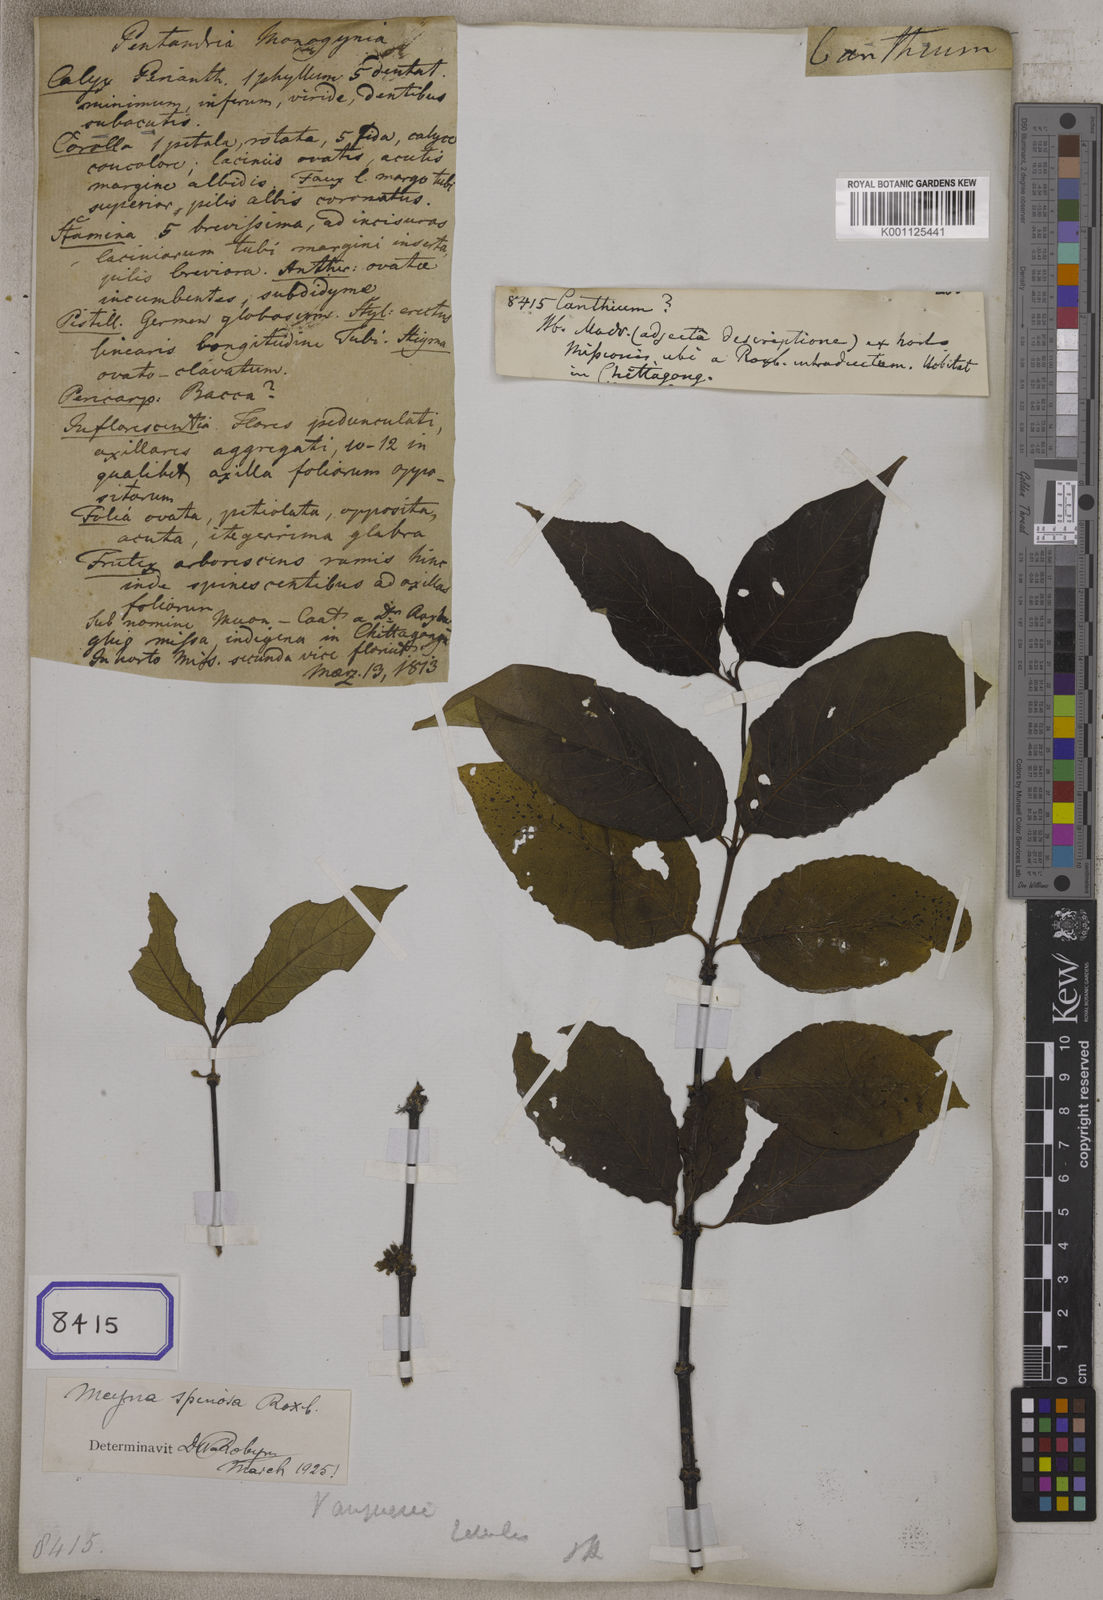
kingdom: Plantae
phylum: Tracheophyta
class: Magnoliopsida
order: Gentianales
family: Rubiaceae
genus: Canthium
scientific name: Canthium
